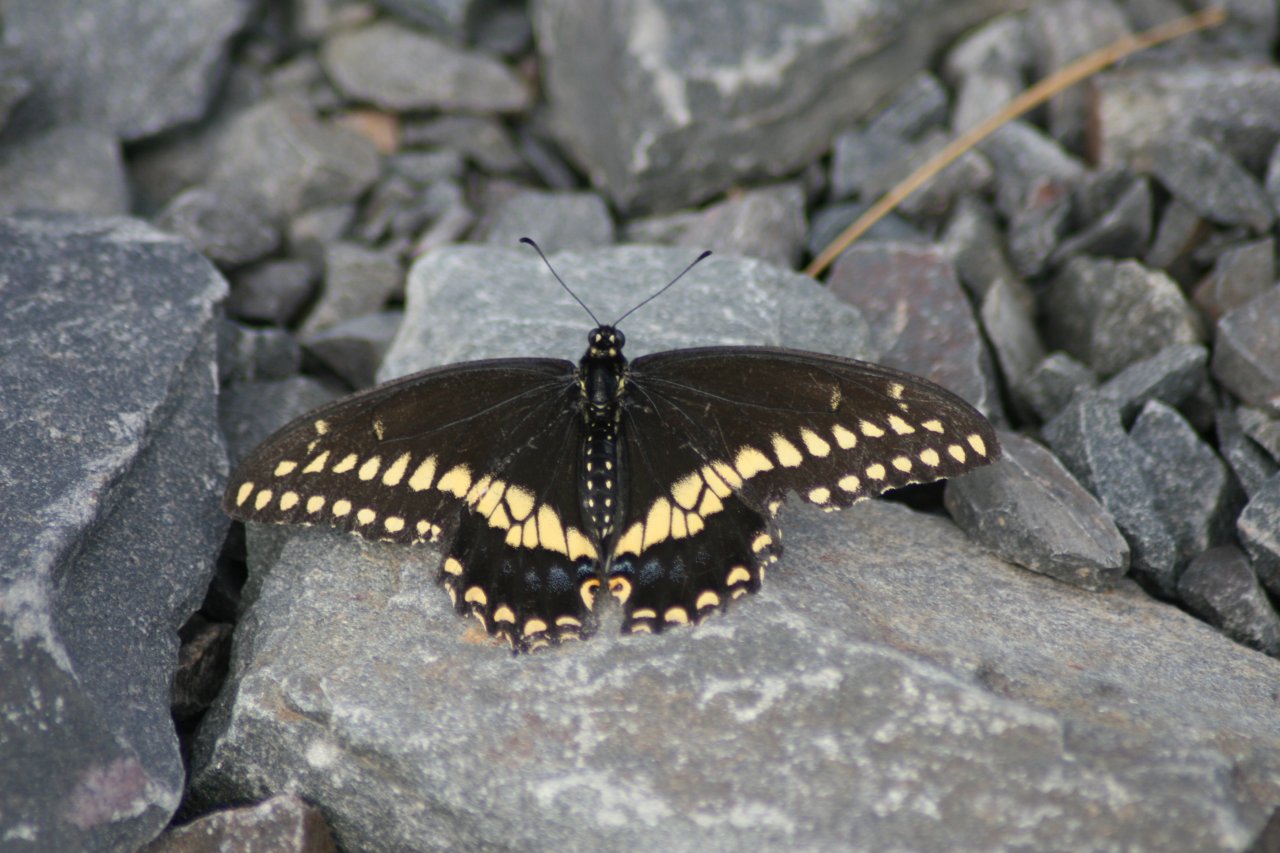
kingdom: Animalia
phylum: Arthropoda
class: Insecta
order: Lepidoptera
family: Papilionidae
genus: Papilio
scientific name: Papilio polyxenes
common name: Black Swallowtail
